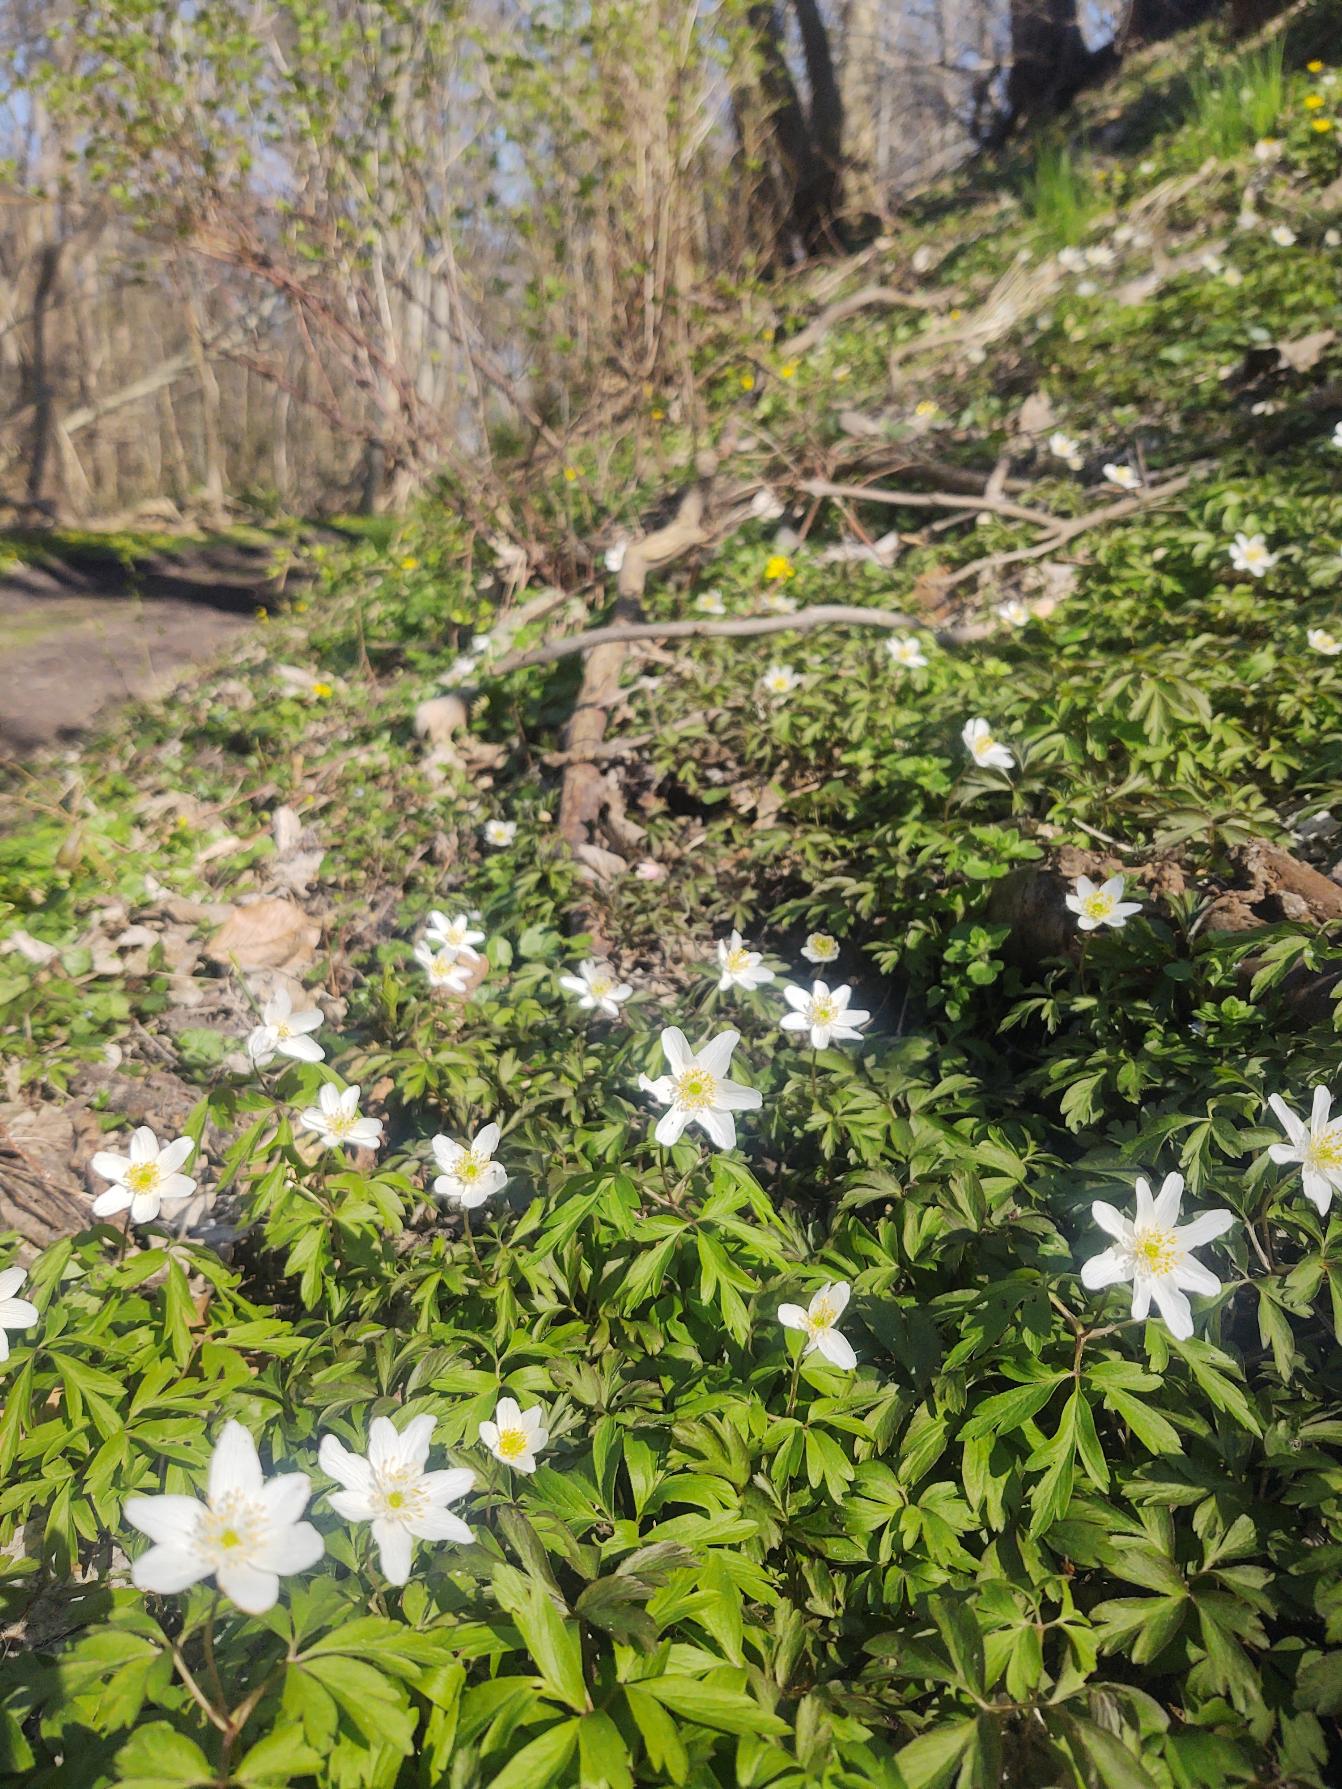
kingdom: Plantae
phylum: Tracheophyta
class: Magnoliopsida
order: Ranunculales
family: Ranunculaceae
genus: Anemone
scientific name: Anemone nemorosa
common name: Hvid anemone
